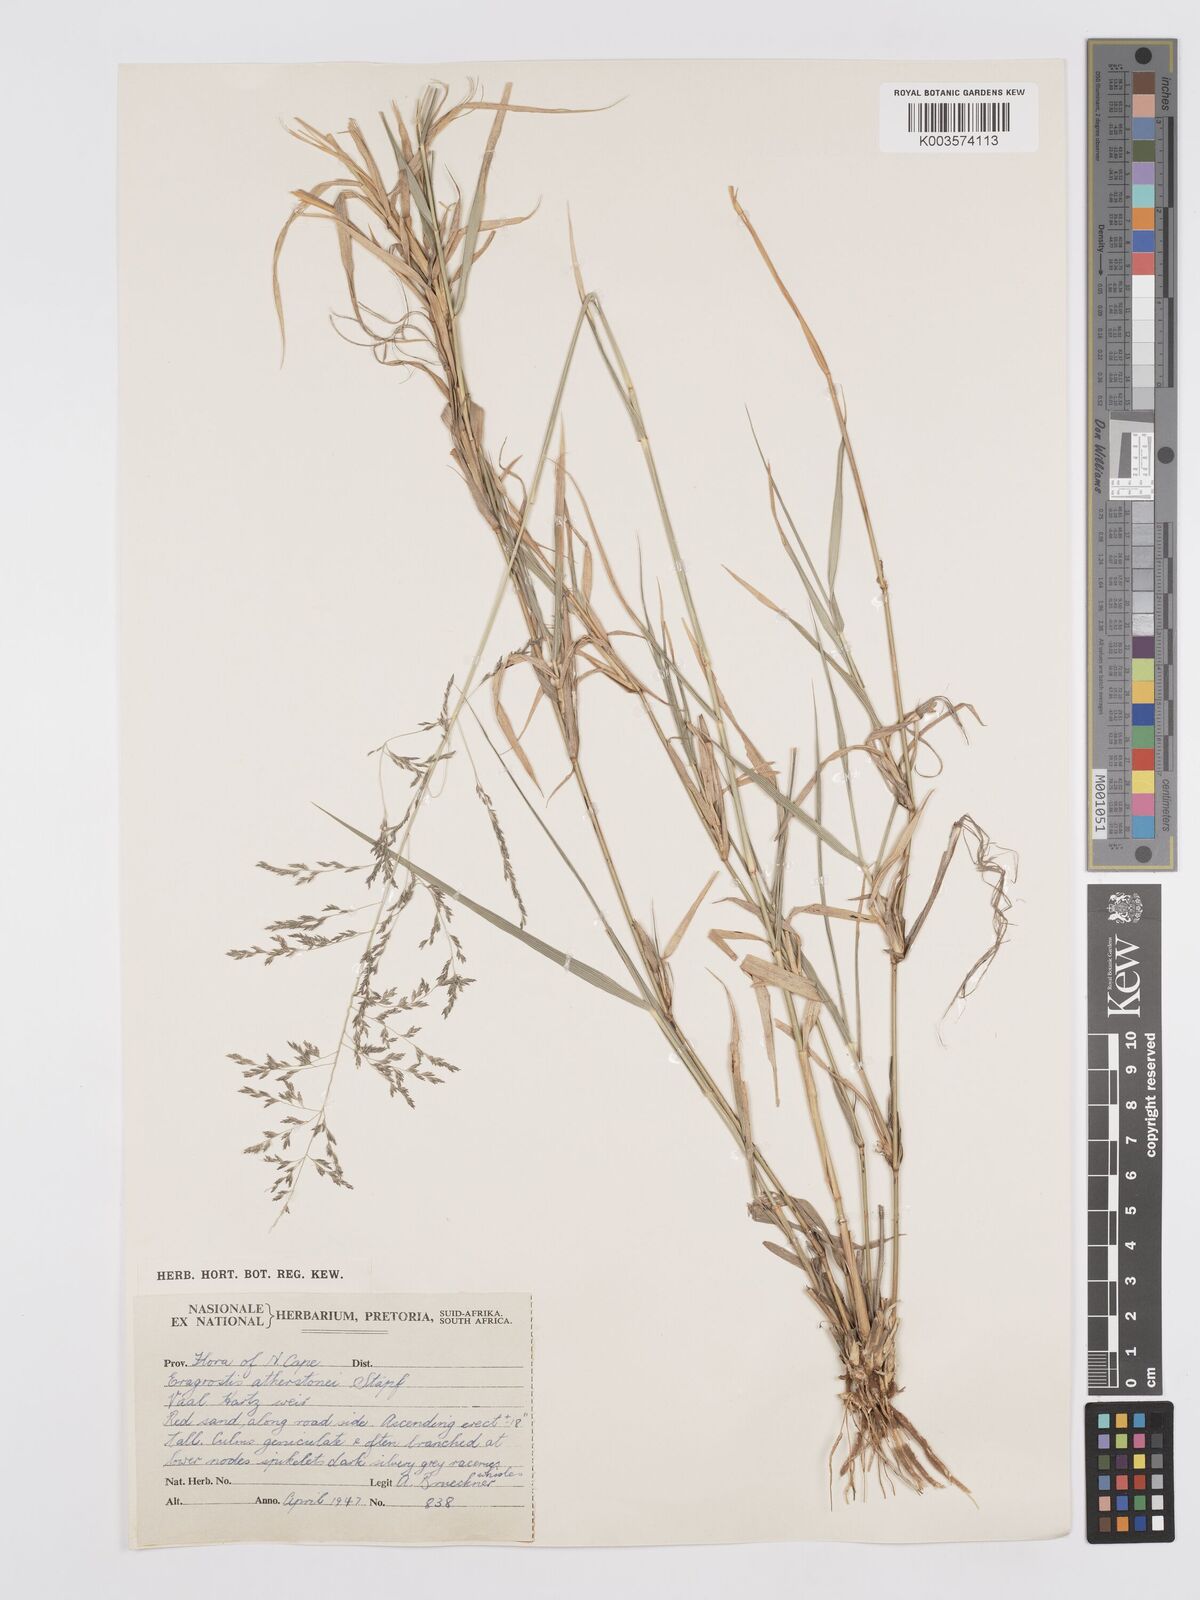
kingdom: Plantae
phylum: Tracheophyta
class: Liliopsida
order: Poales
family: Poaceae
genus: Eragrostis
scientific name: Eragrostis cylindriflora
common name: Cylinderflower lovegrass
